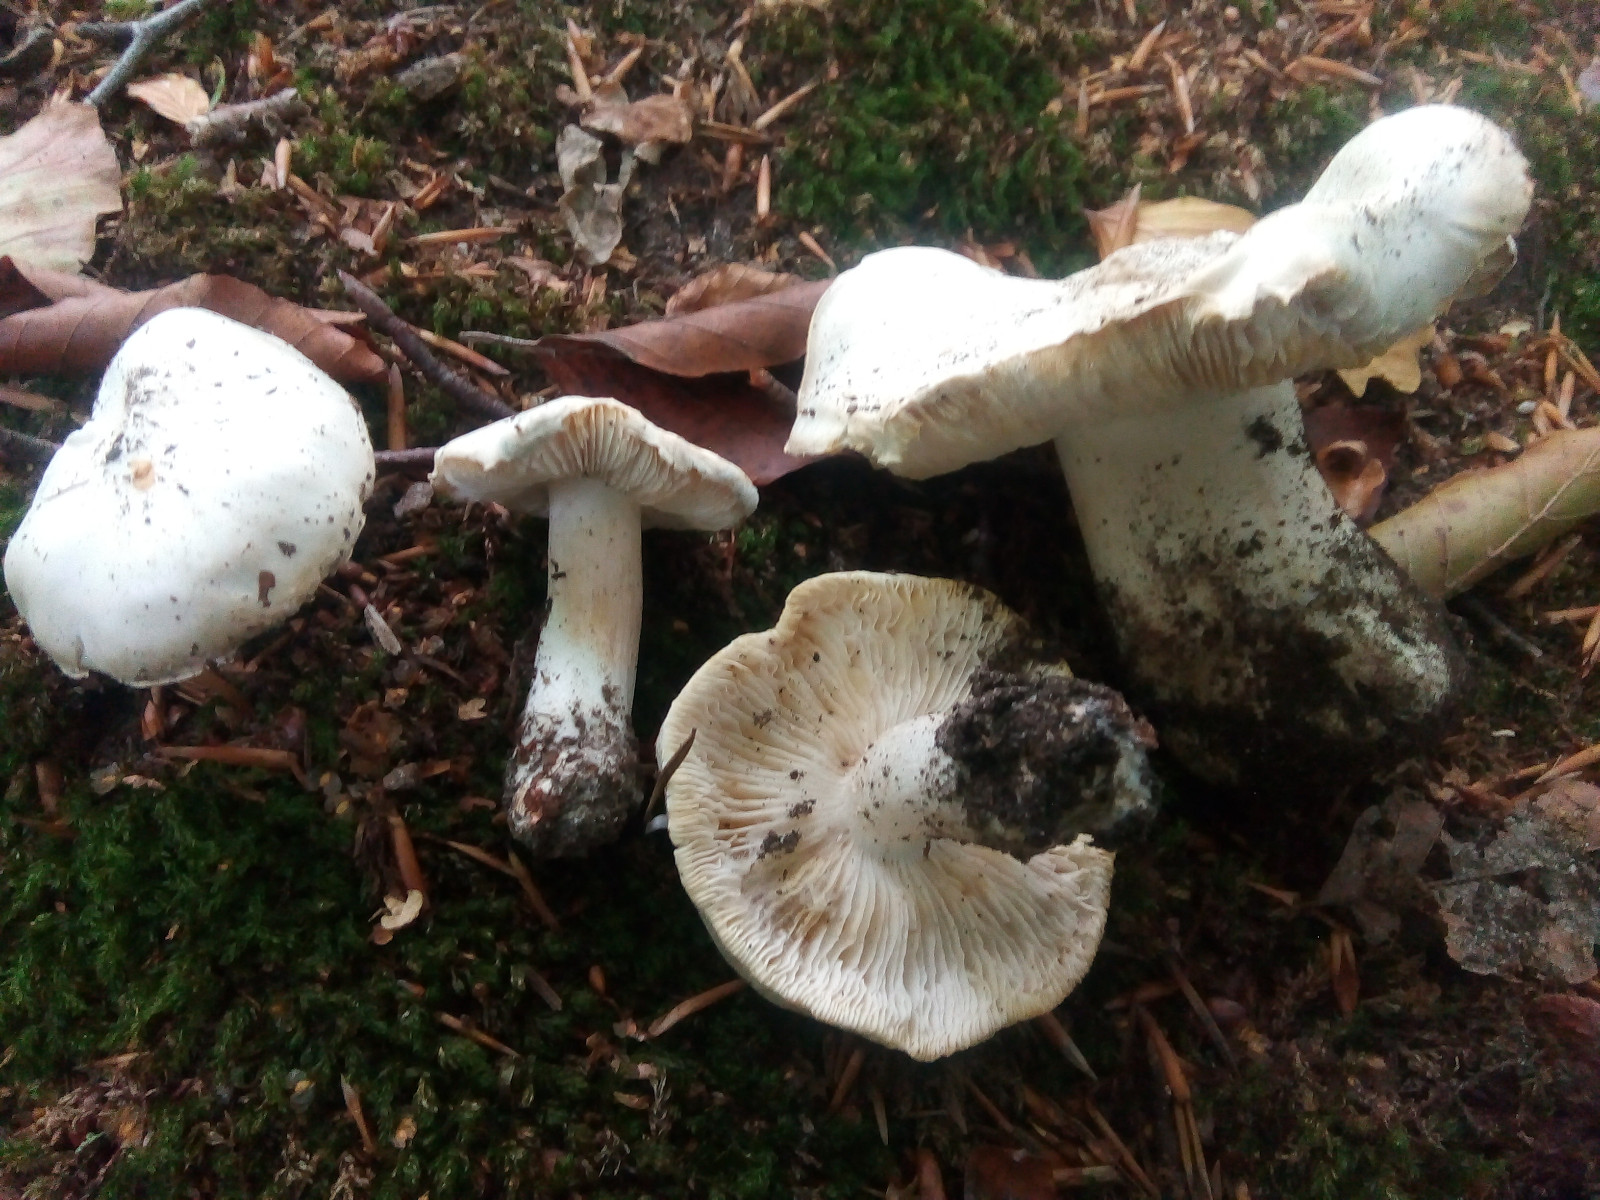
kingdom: Fungi
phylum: Basidiomycota
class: Agaricomycetes
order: Agaricales
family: Tricholomataceae
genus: Tricholoma
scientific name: Tricholoma columbetta
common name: silke-ridderhat
